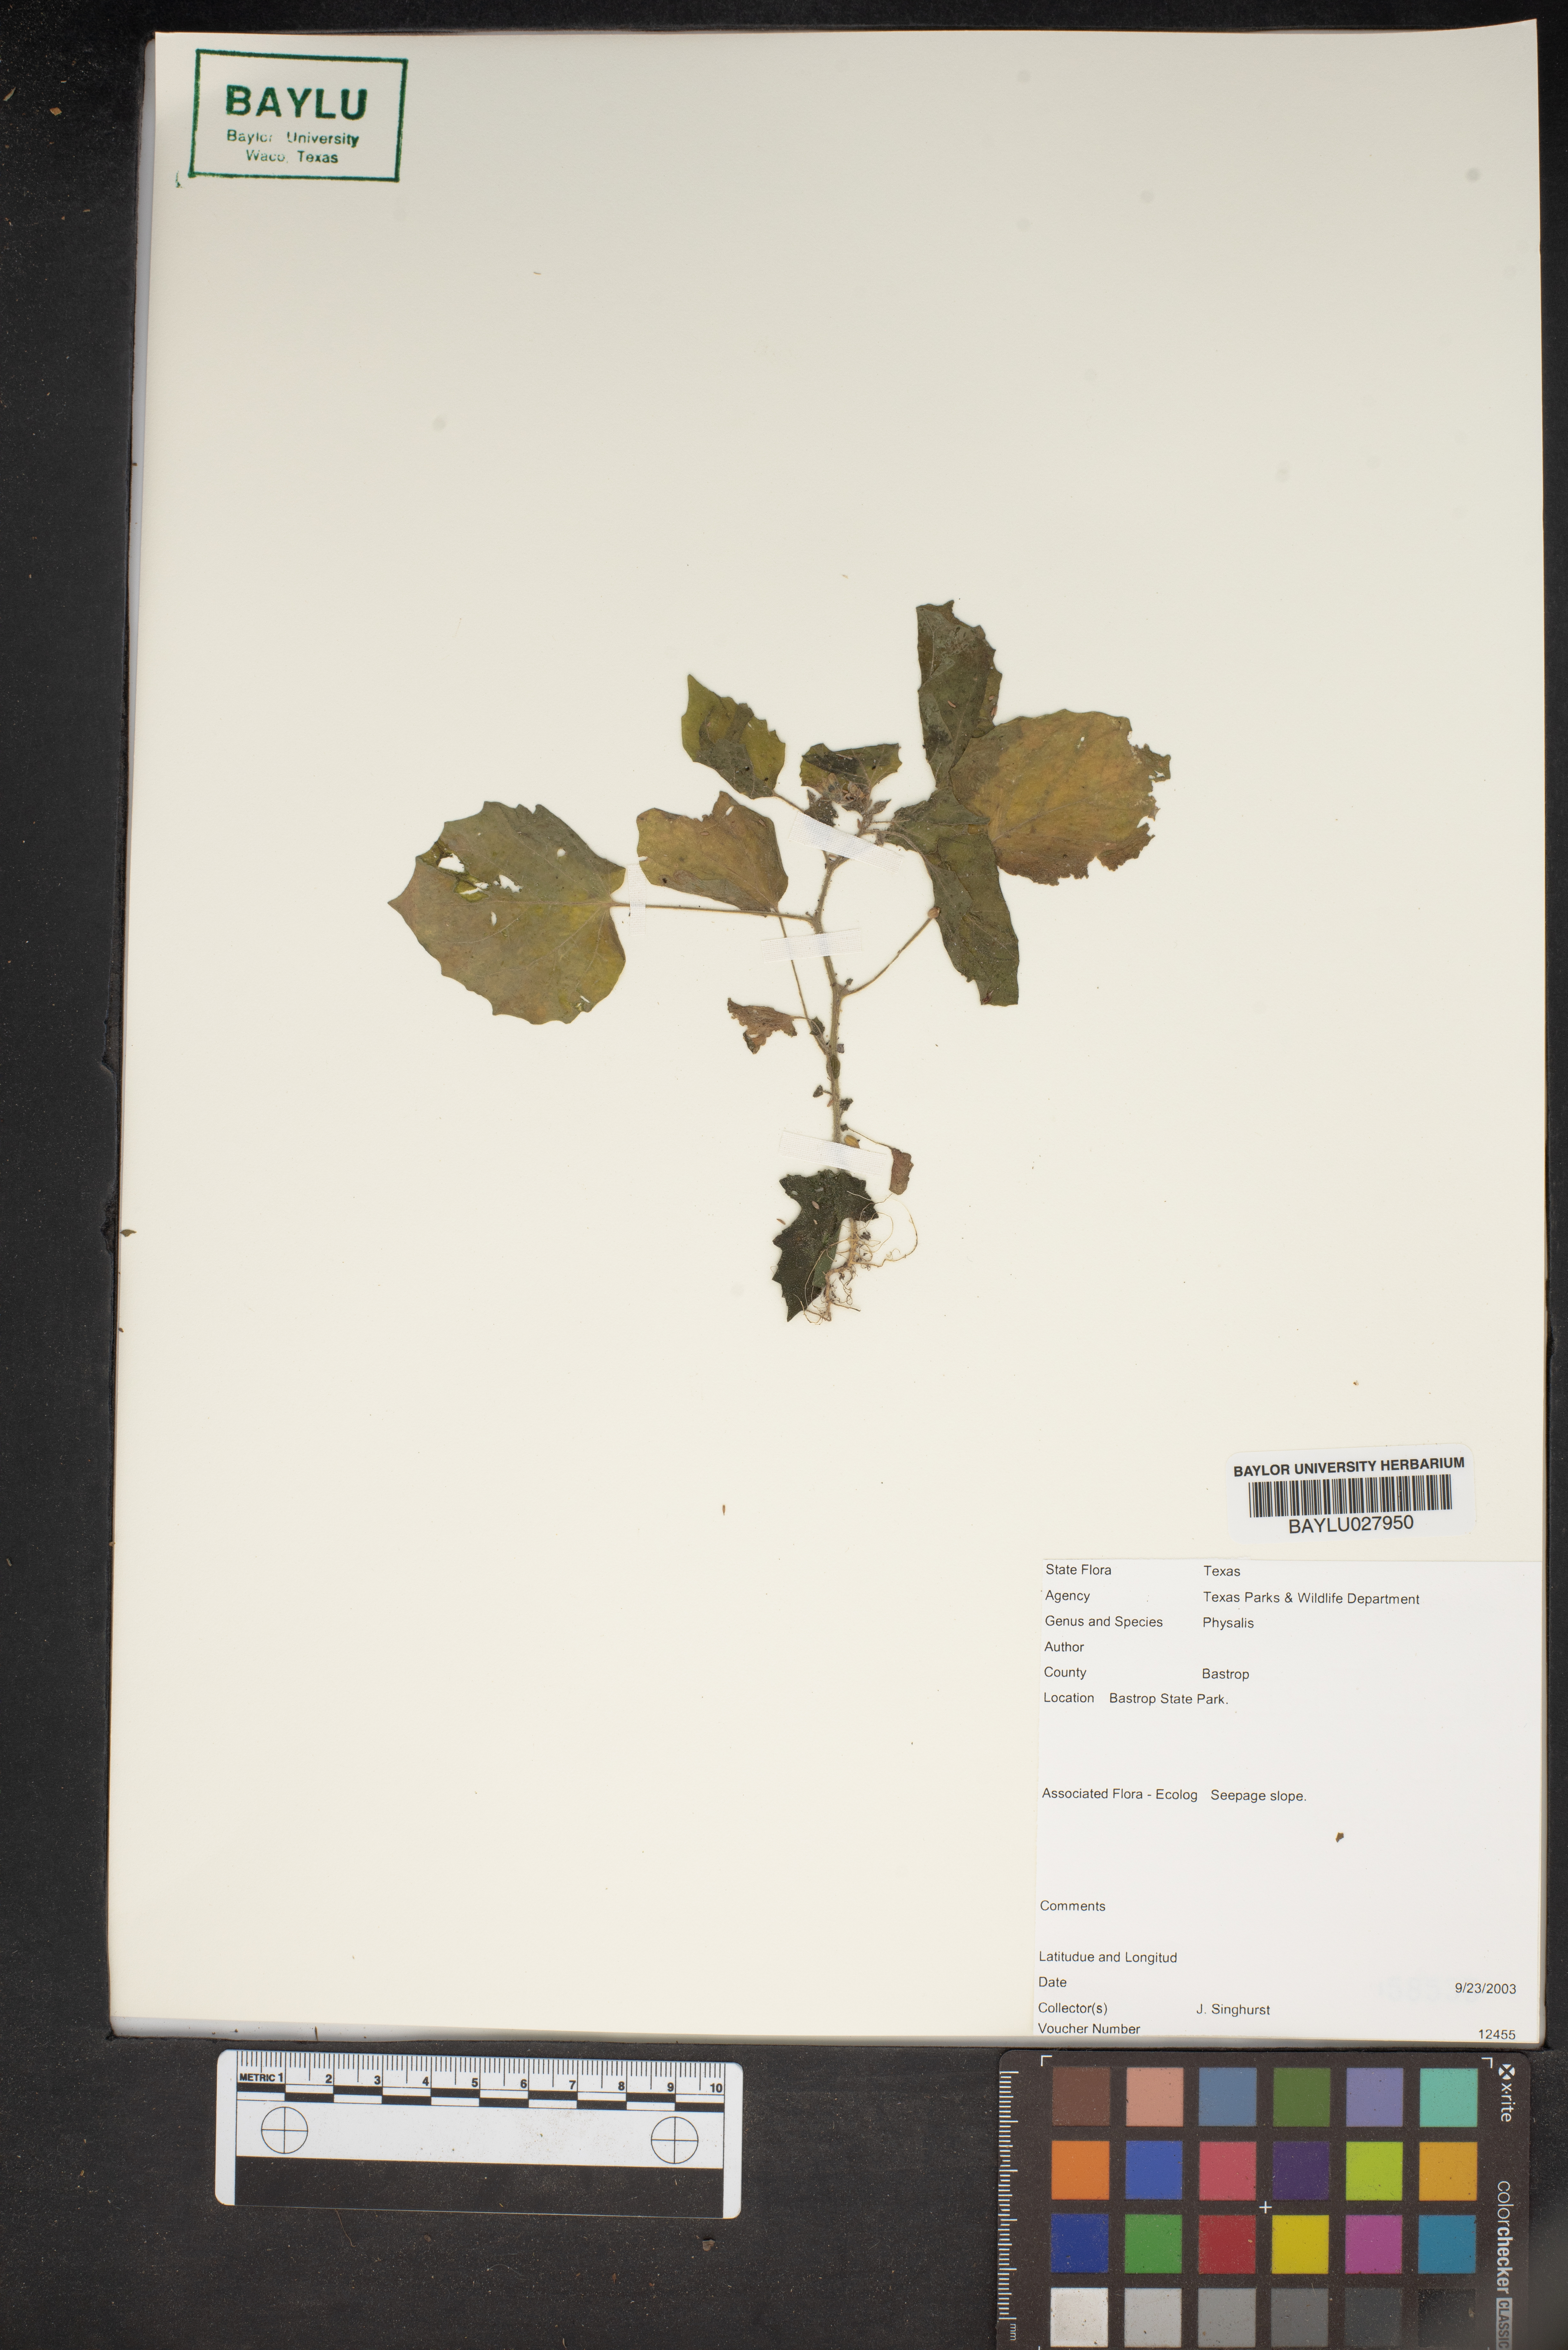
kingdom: Plantae
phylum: Tracheophyta
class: Magnoliopsida
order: Solanales
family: Solanaceae
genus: Physalis
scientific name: Physalis
